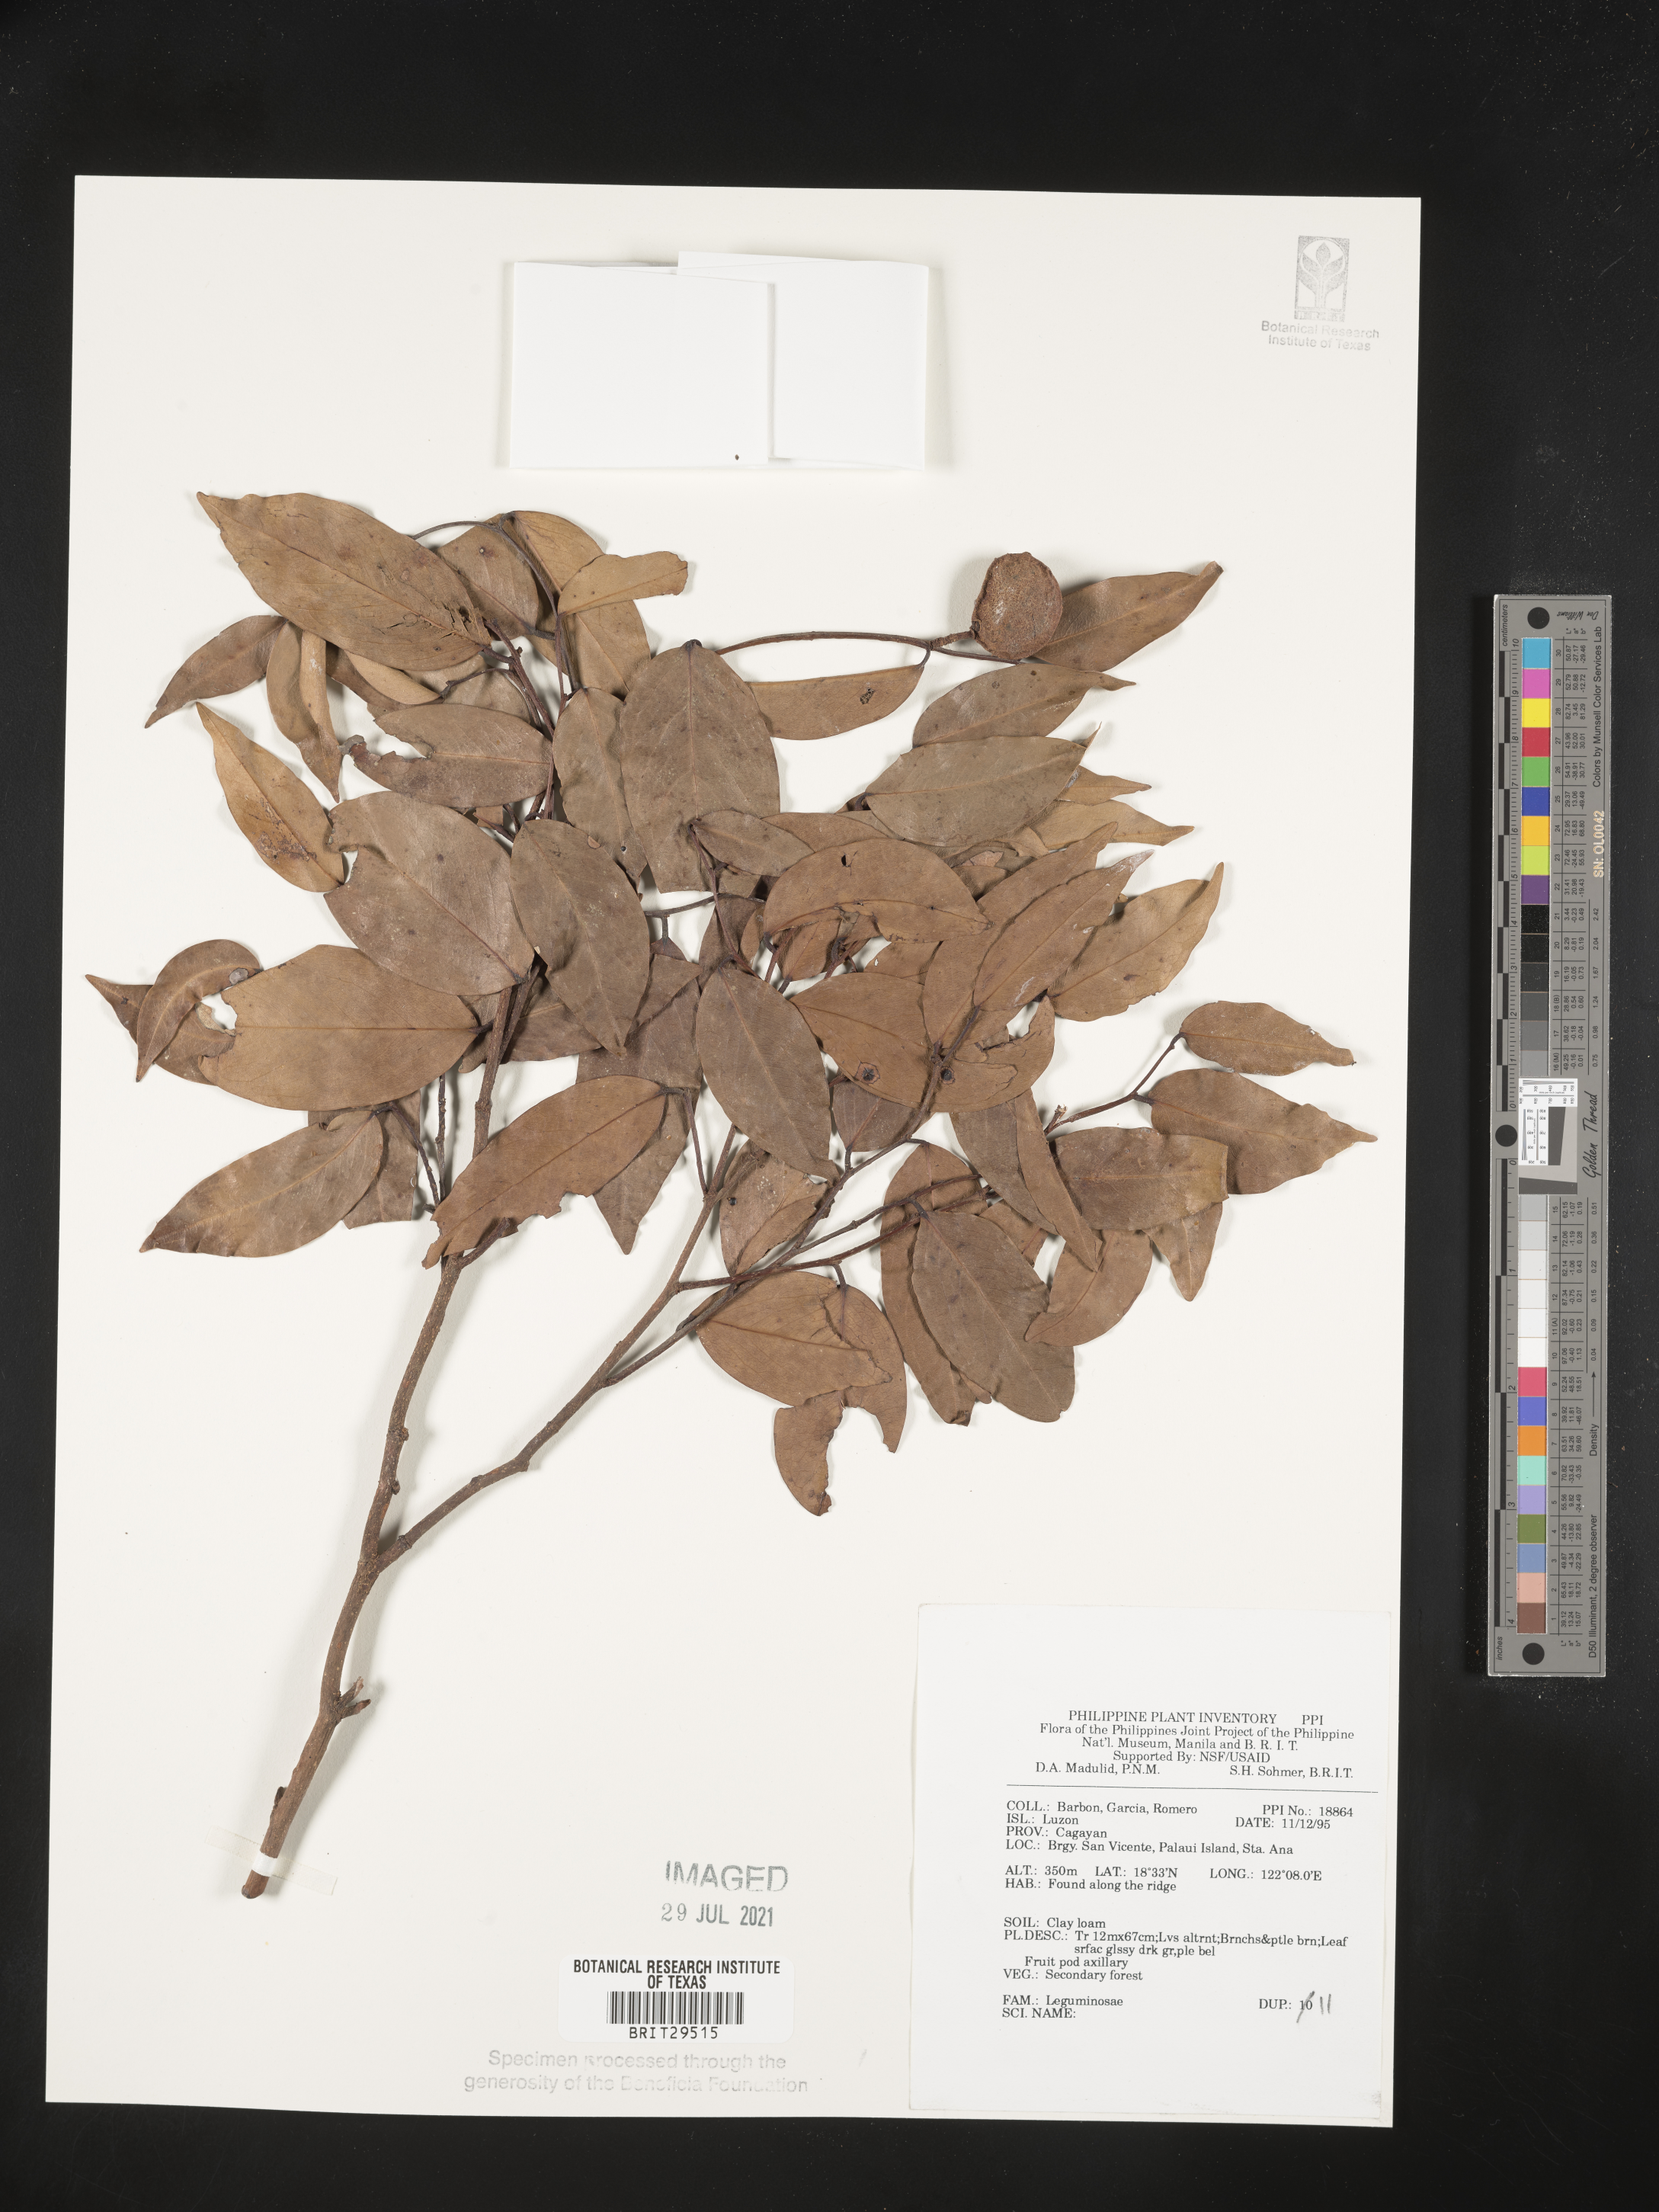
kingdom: Plantae
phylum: Tracheophyta
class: Magnoliopsida
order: Fabales
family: Fabaceae
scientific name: Fabaceae
